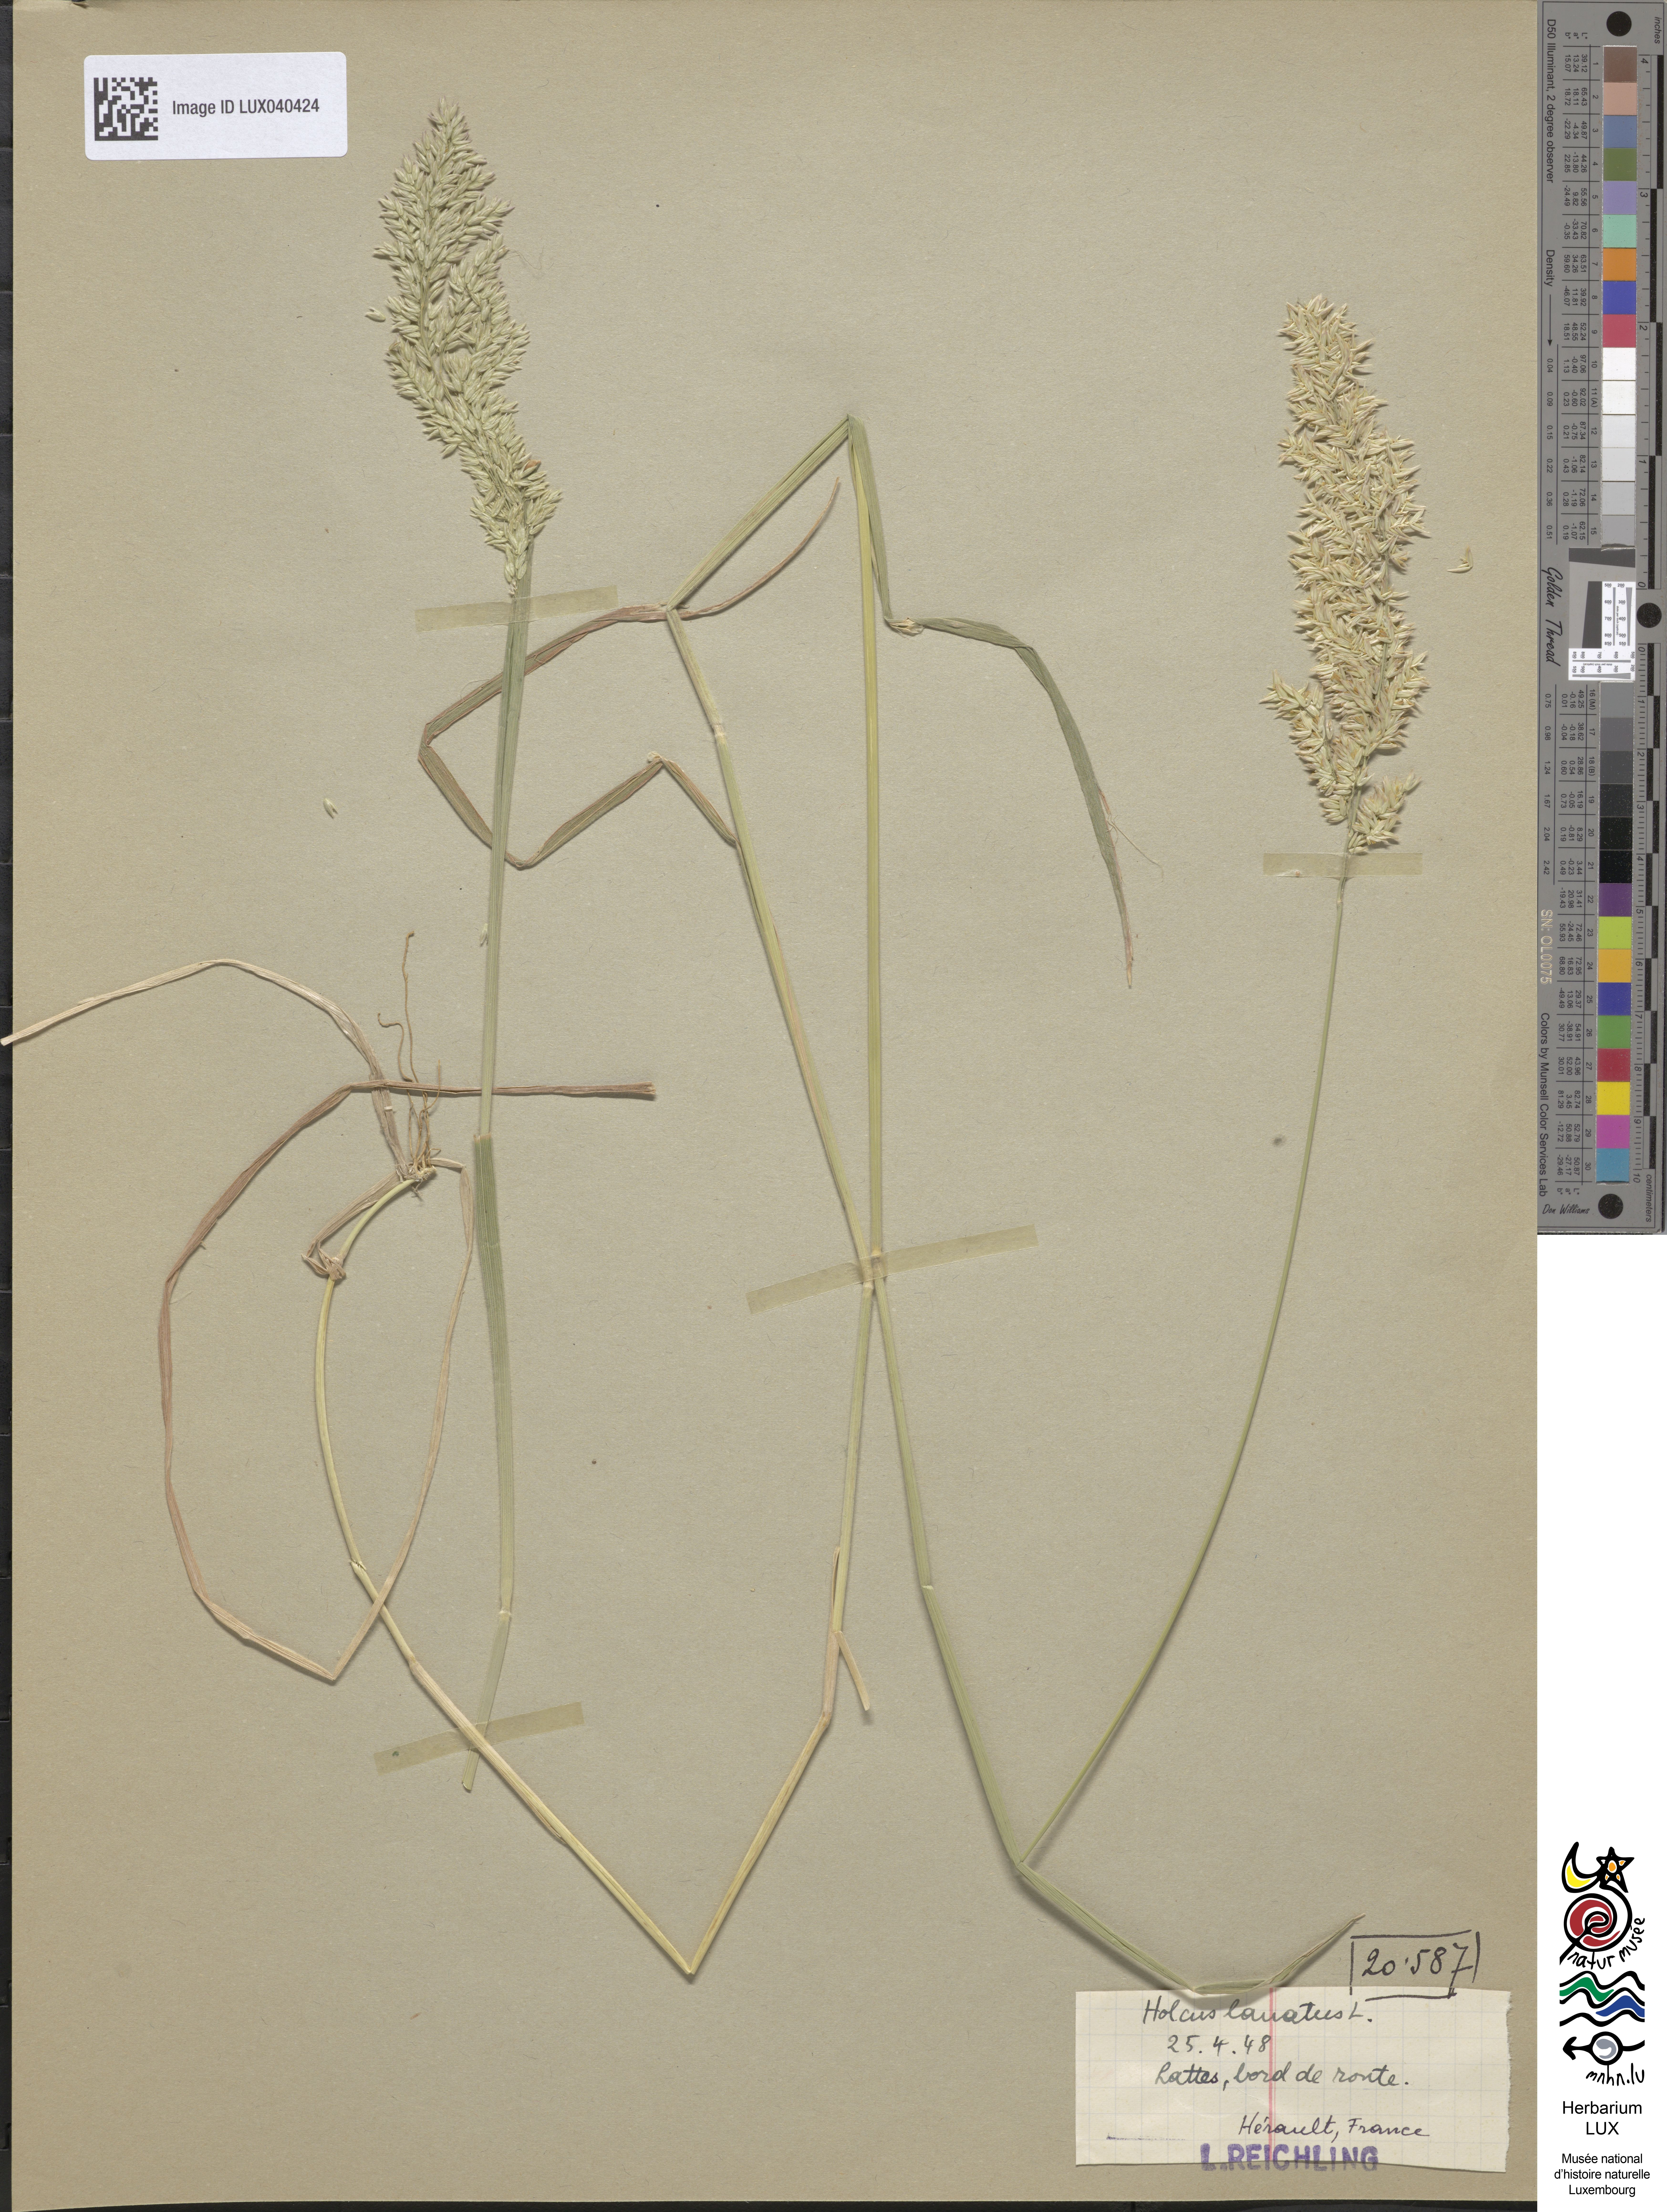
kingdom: Plantae
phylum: Tracheophyta
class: Liliopsida
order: Poales
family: Poaceae
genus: Holcus
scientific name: Holcus lanatus
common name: Yorkshire-fog
